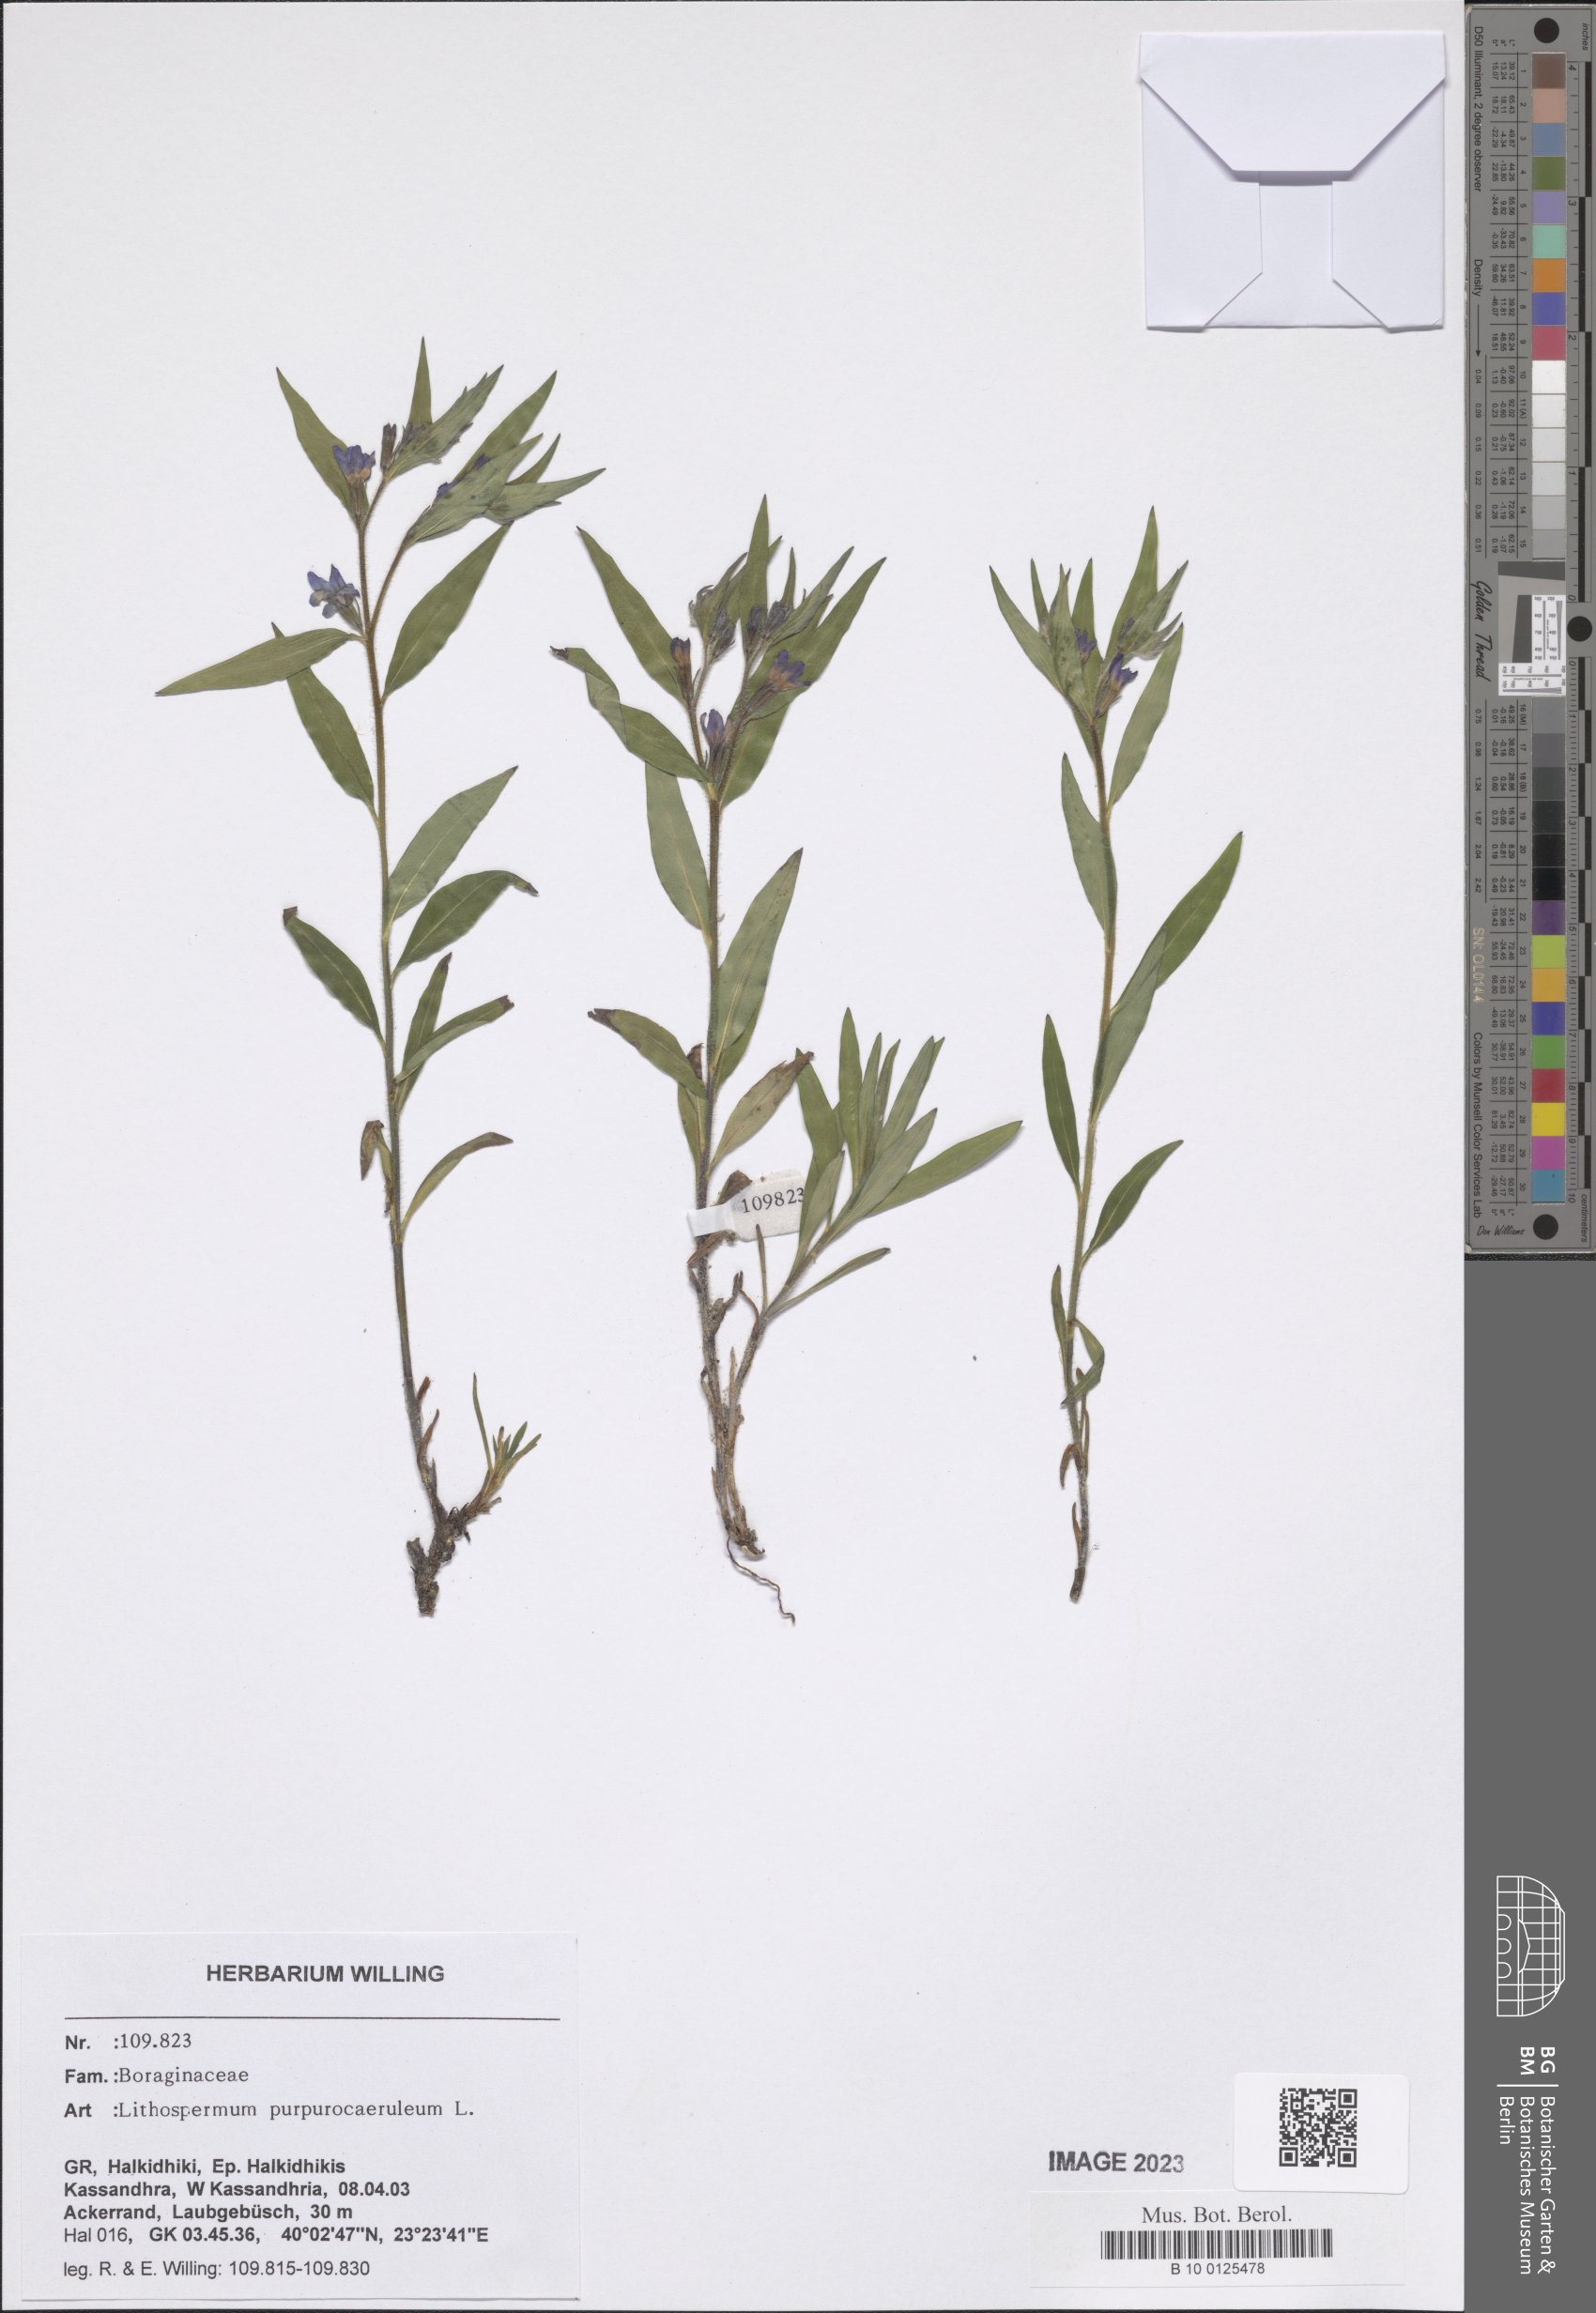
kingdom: Plantae
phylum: Tracheophyta
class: Magnoliopsida
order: Boraginales
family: Boraginaceae
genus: Aegonychon
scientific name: Aegonychon purpurocaeruleum
